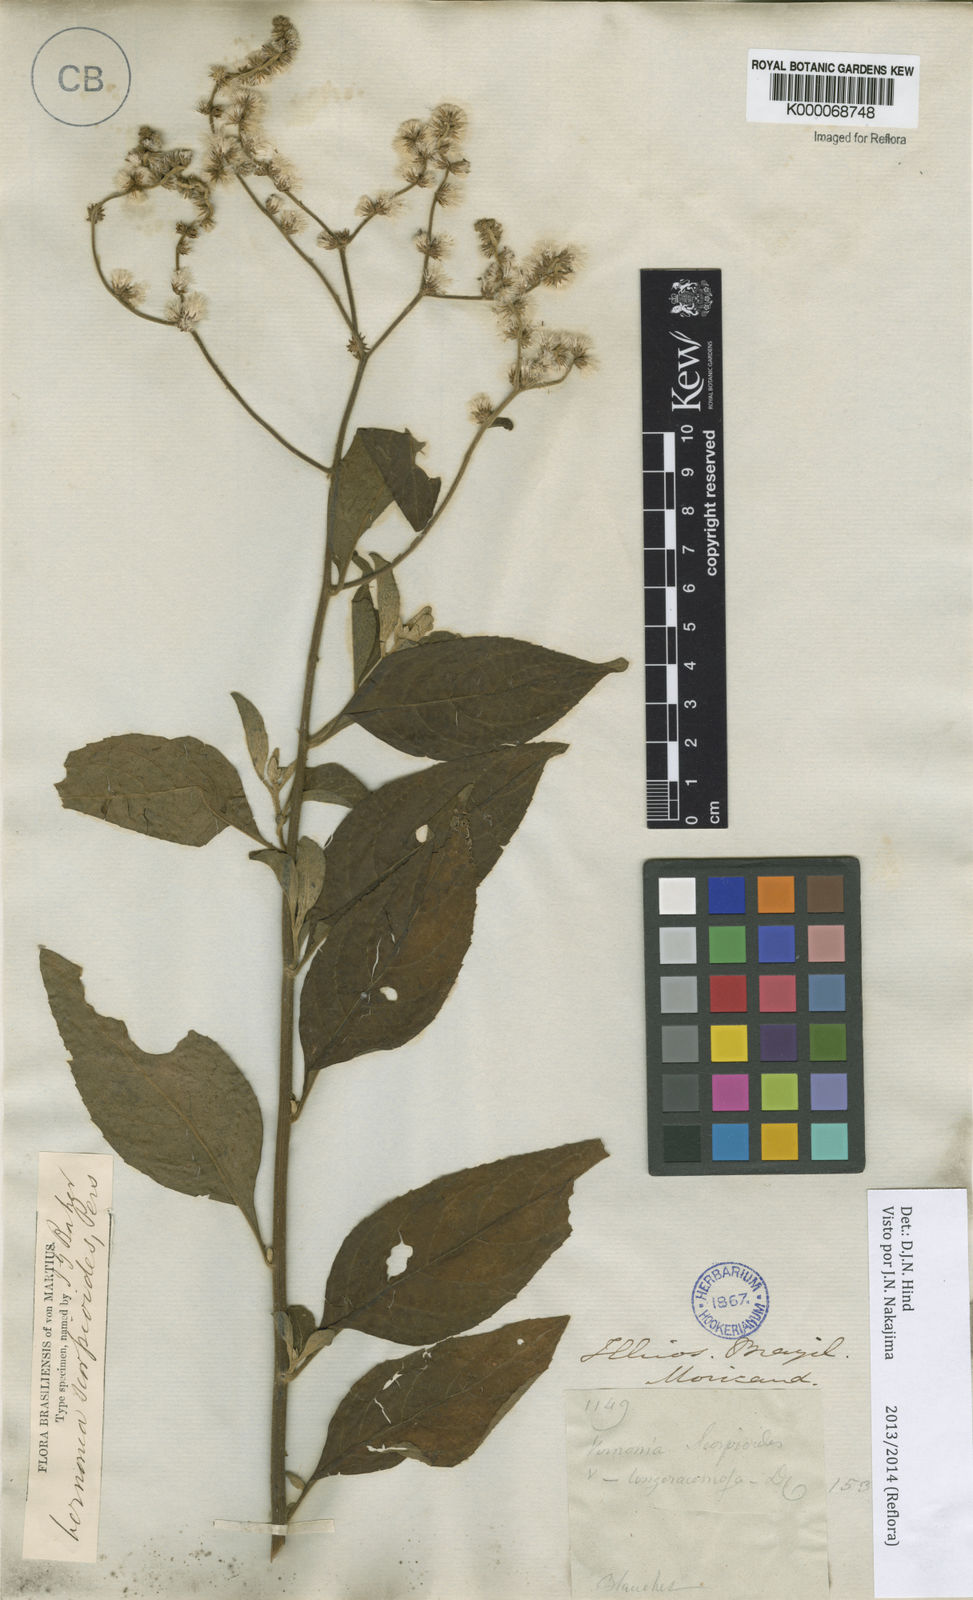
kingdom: Plantae
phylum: Tracheophyta
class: Magnoliopsida
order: Asterales
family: Asteraceae
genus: Cyrtocymura
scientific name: Cyrtocymura scorpioides
